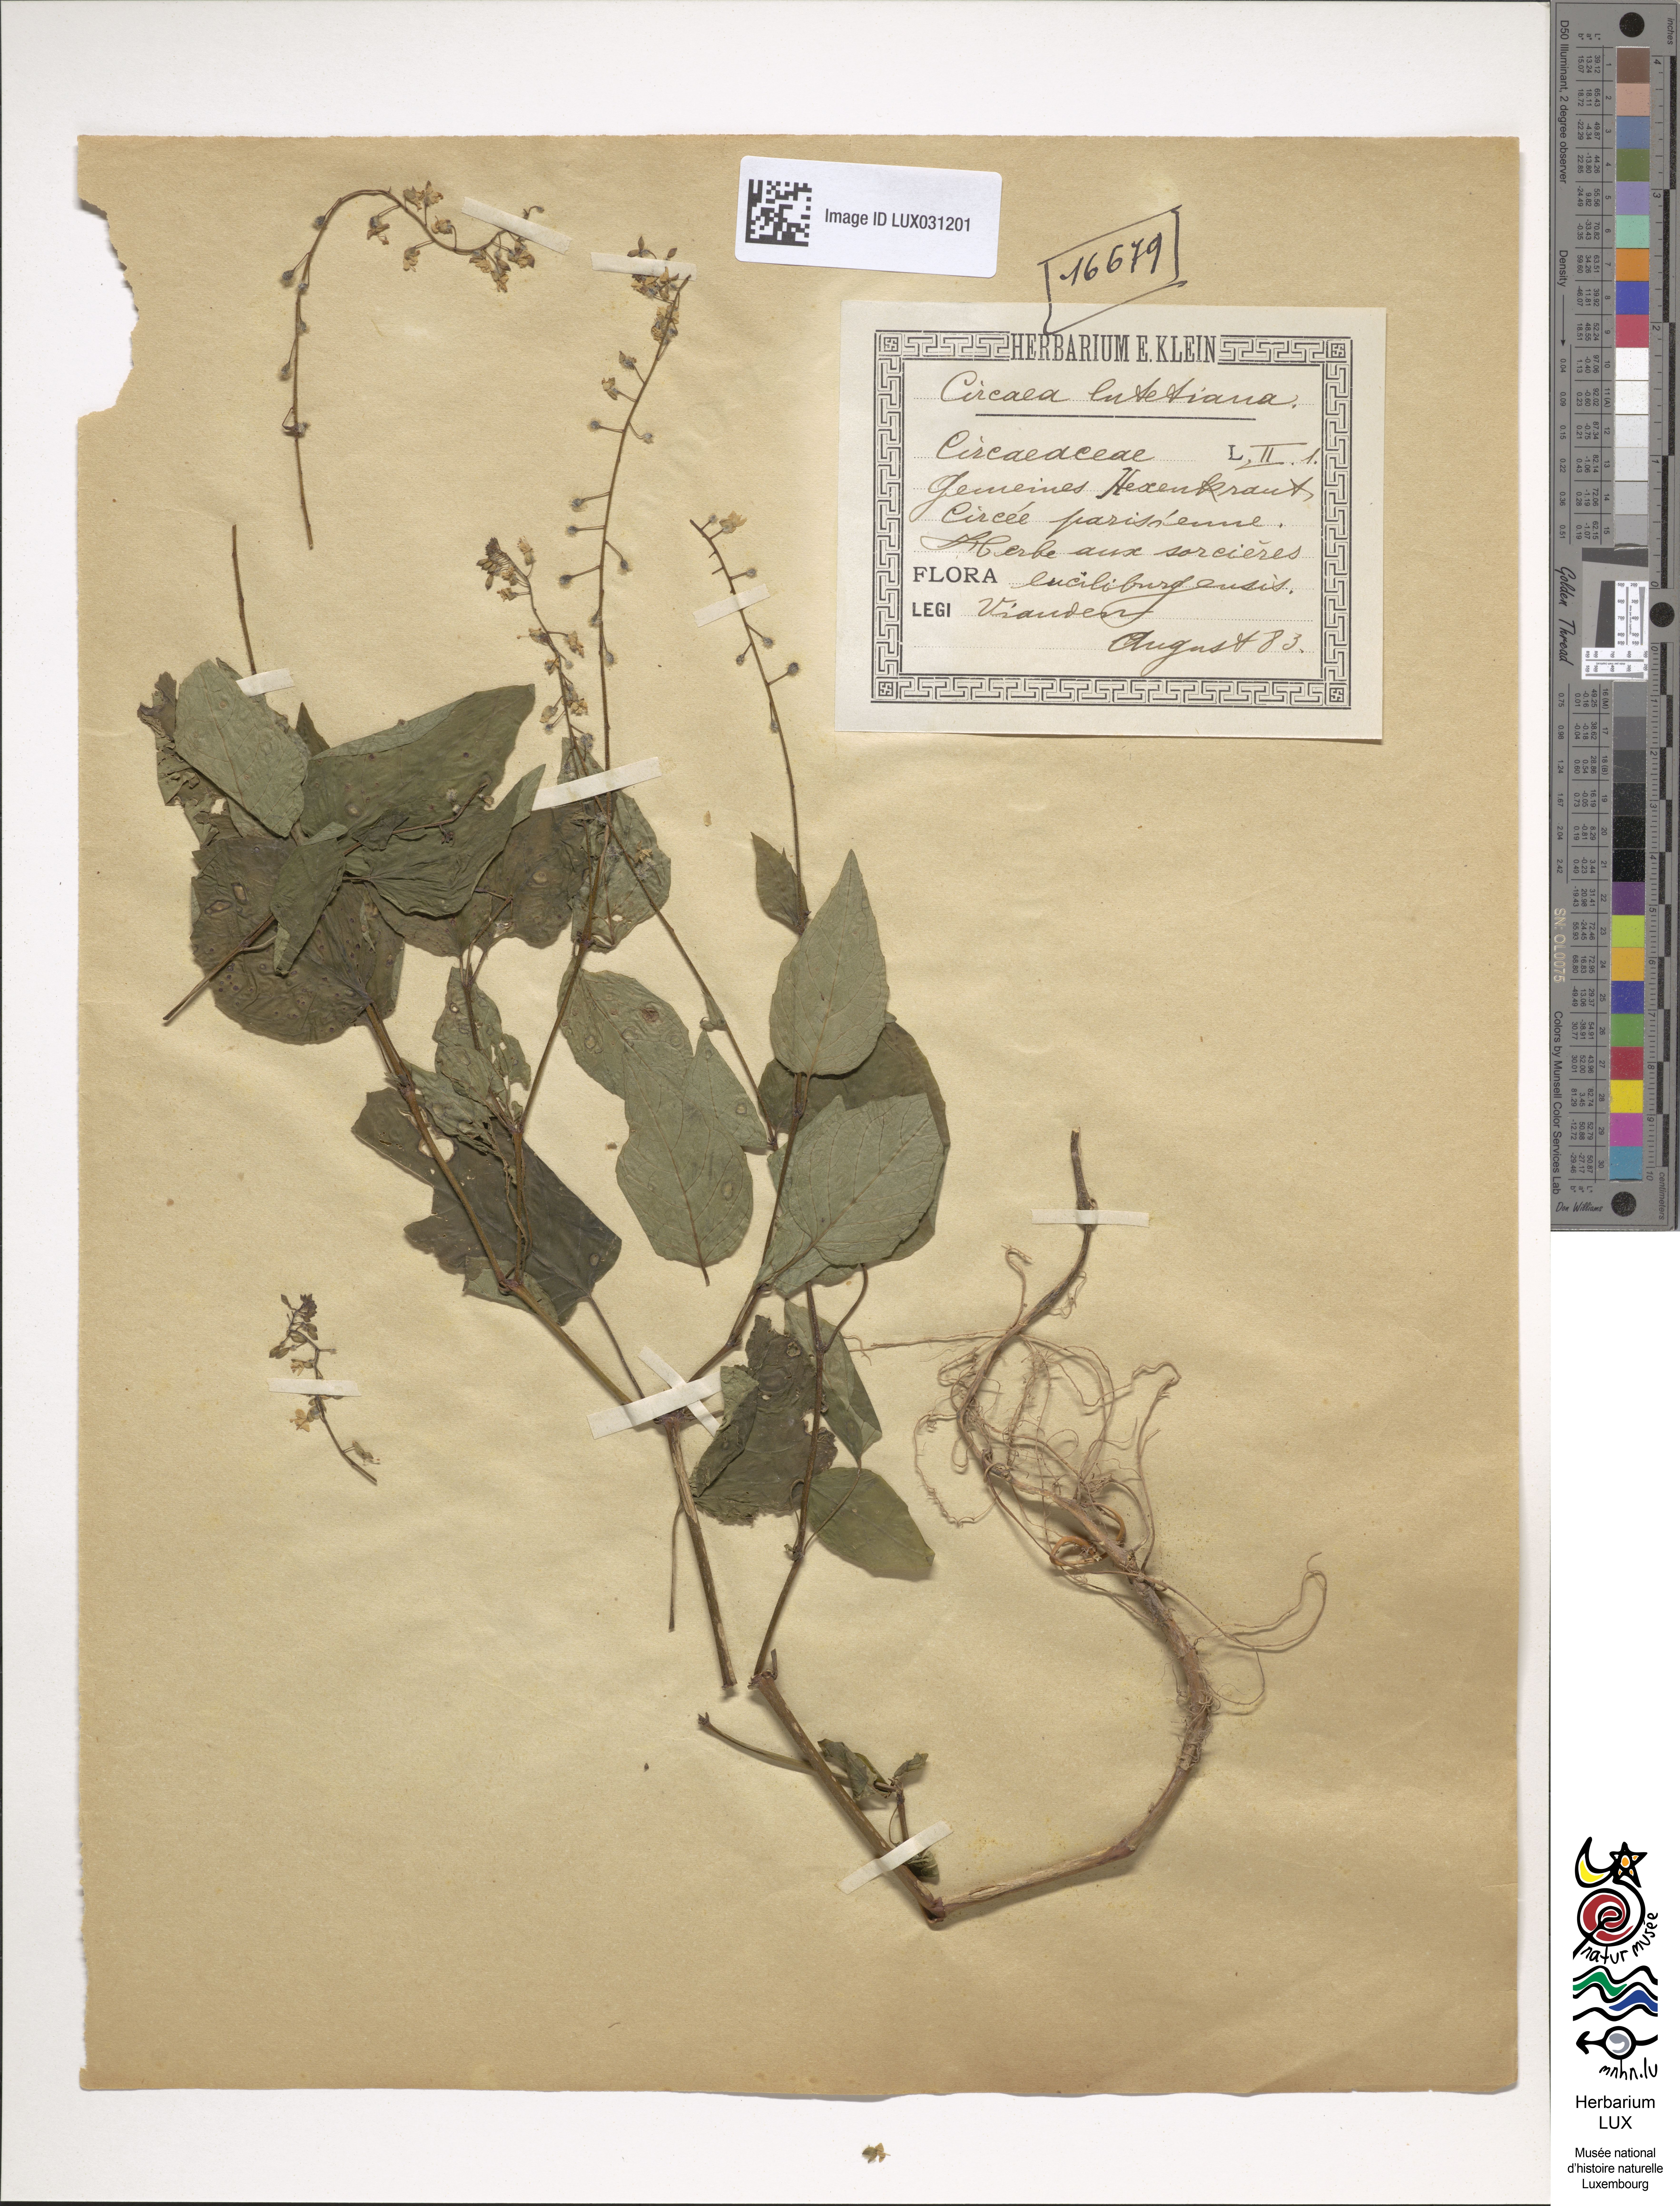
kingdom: Plantae
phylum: Tracheophyta
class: Magnoliopsida
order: Myrtales
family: Onagraceae
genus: Circaea
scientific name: Circaea lutetiana
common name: Enchanter's-nightshade
